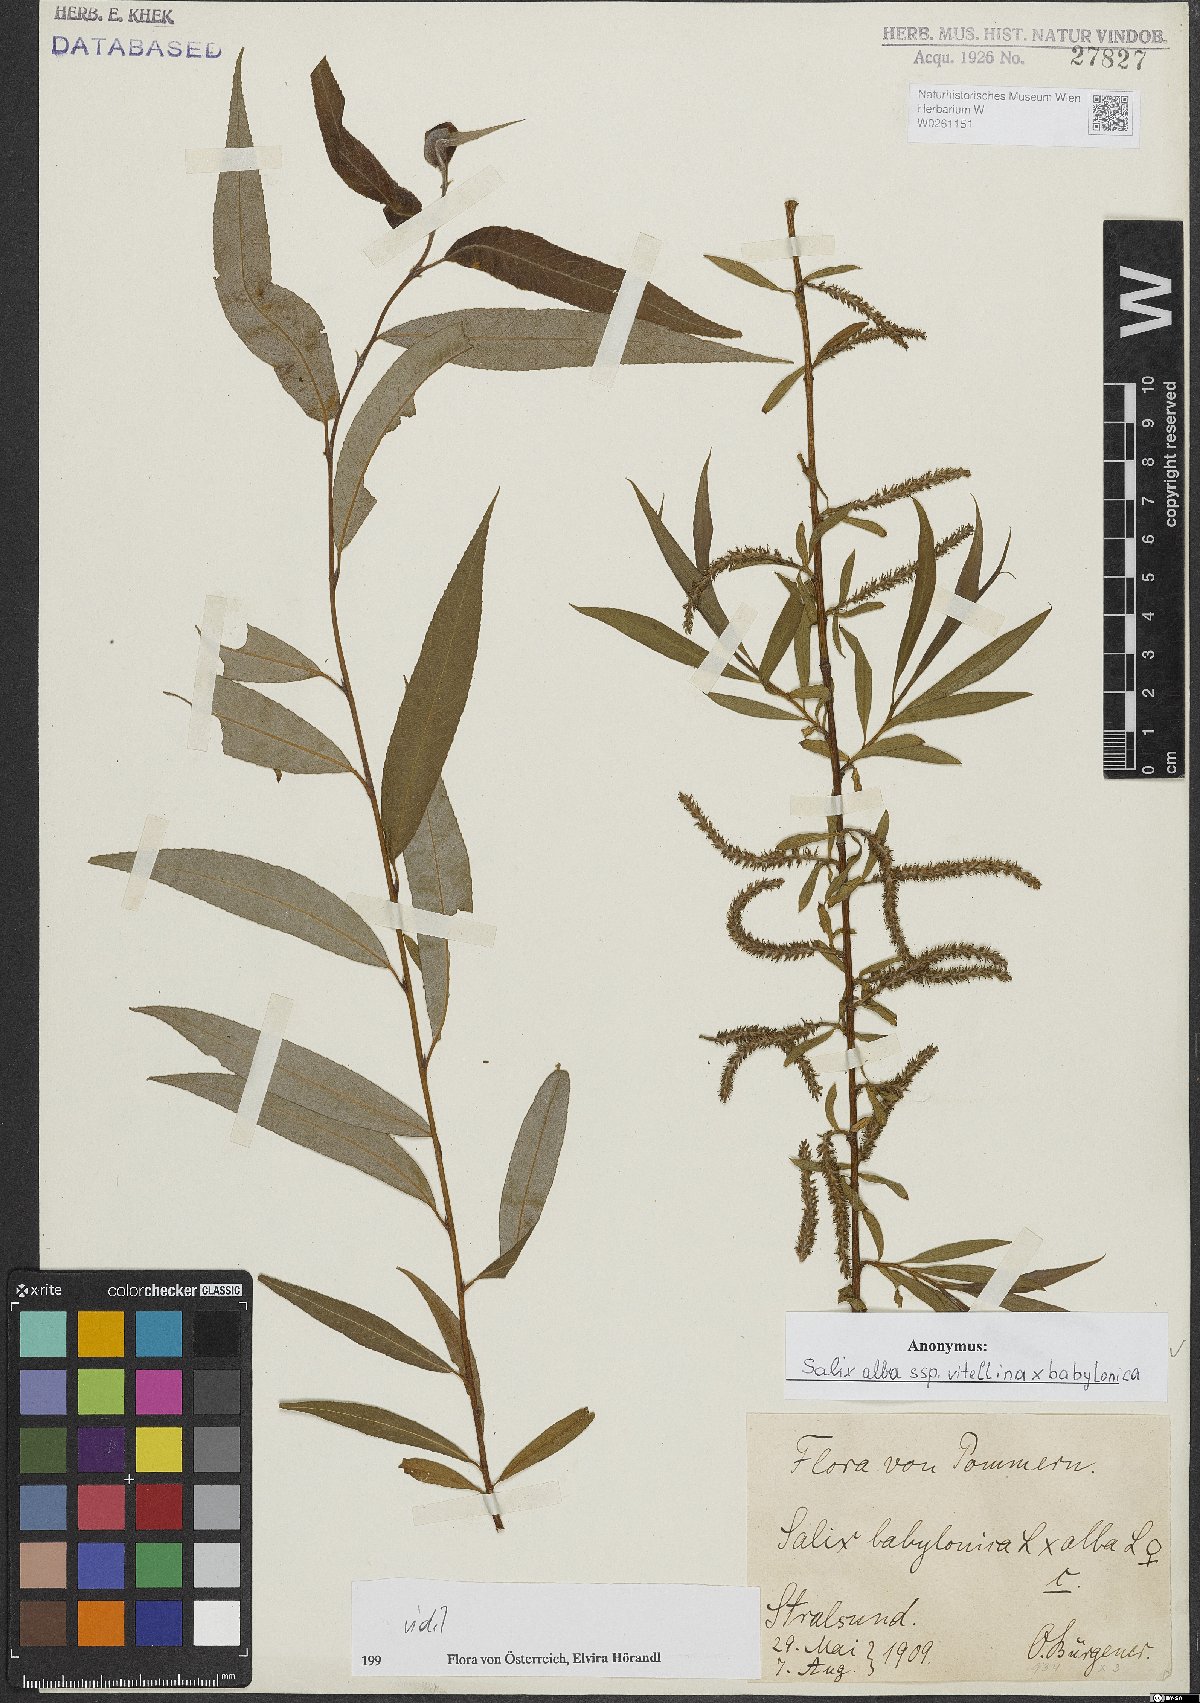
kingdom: Plantae
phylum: Tracheophyta
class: Magnoliopsida
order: Malpighiales
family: Salicaceae
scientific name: Salicaceae
